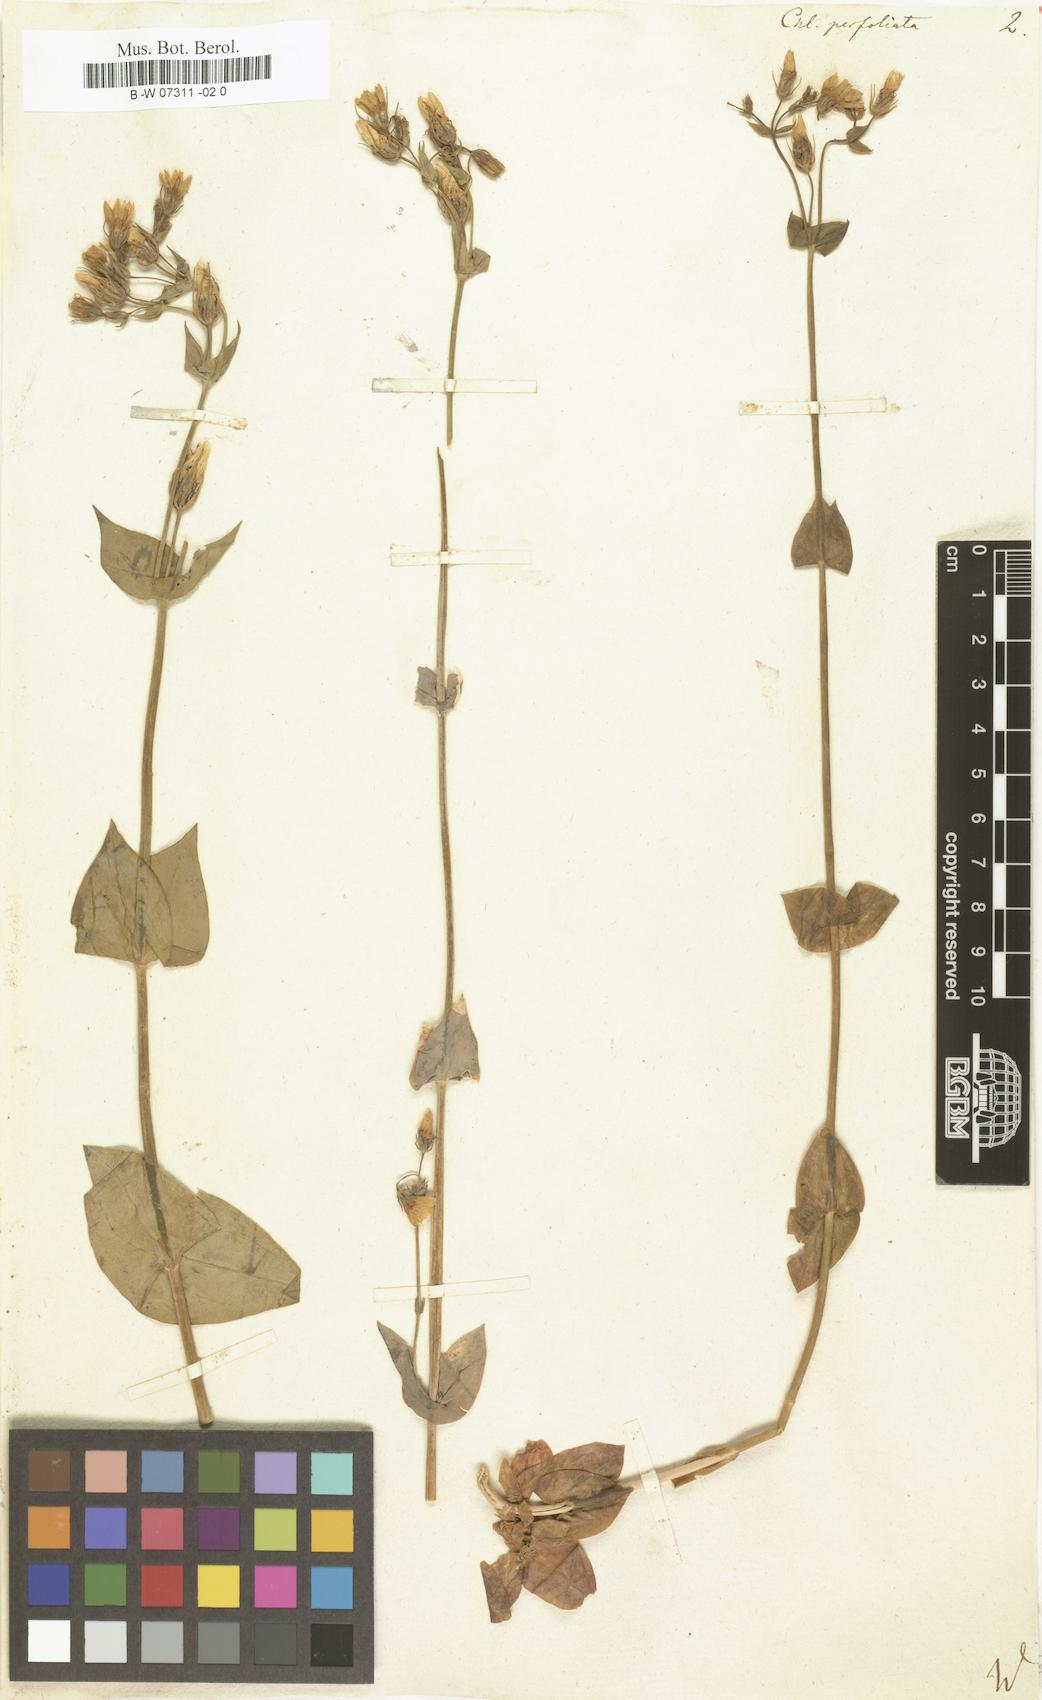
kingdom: Plantae
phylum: Tracheophyta
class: Magnoliopsida
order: Gentianales
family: Gentianaceae
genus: Blackstonia
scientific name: Blackstonia
